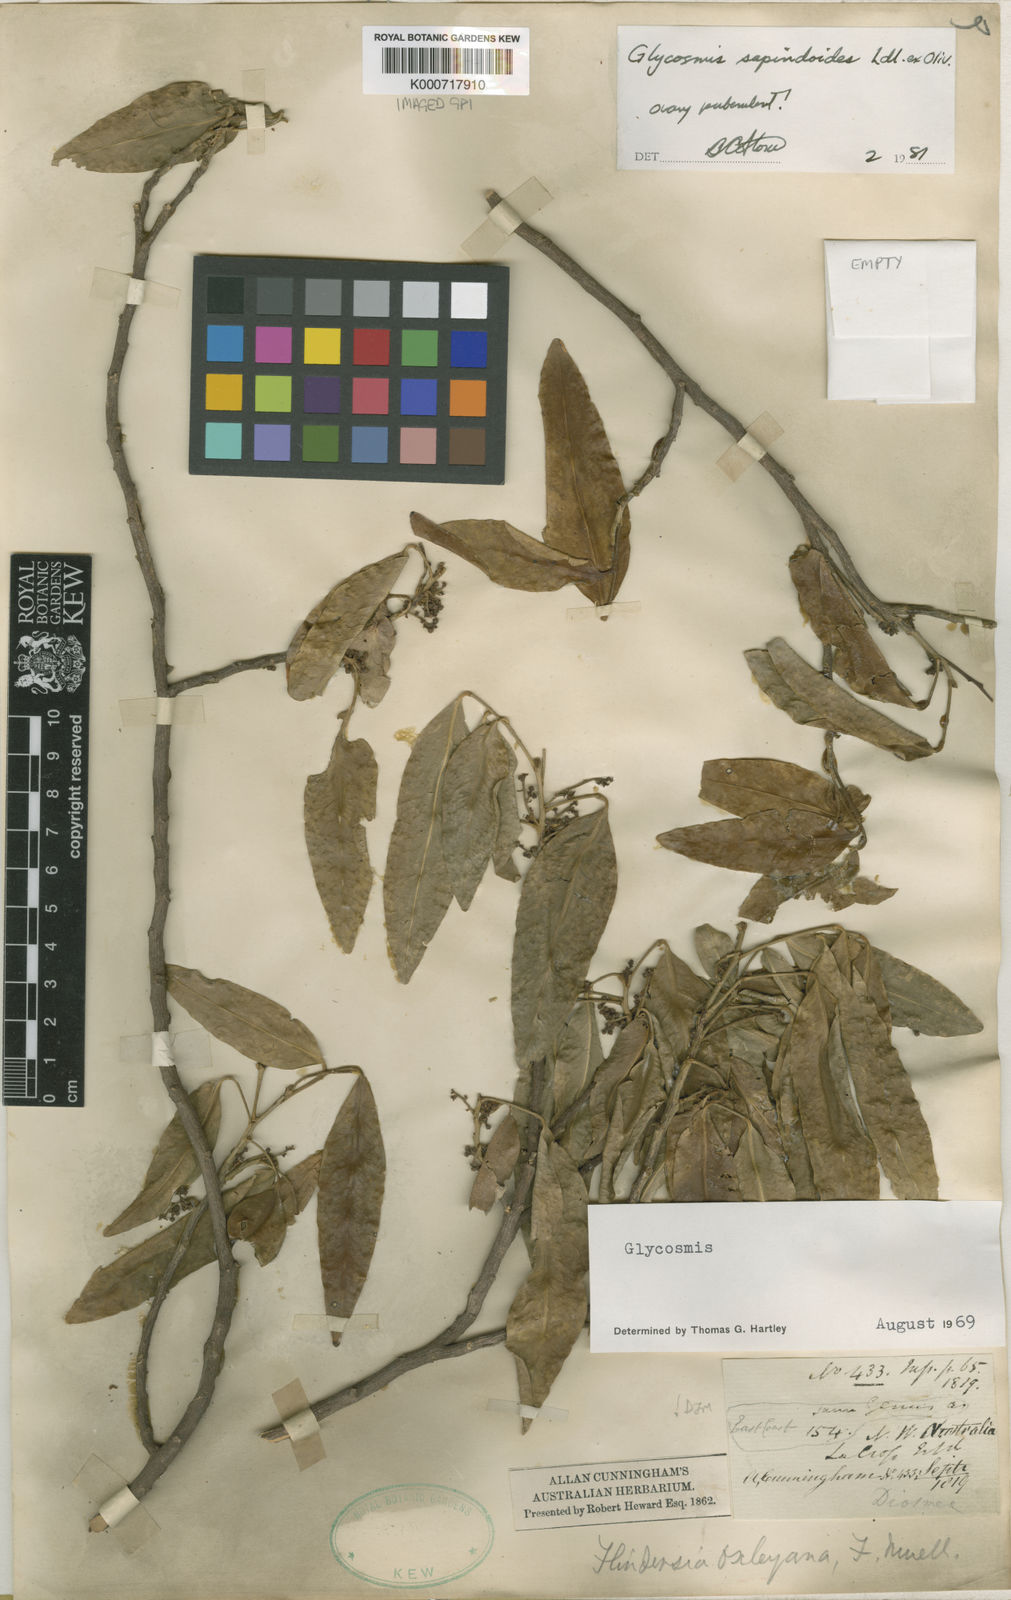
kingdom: Plantae
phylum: Tracheophyta
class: Magnoliopsida
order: Sapindales
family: Rutaceae
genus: Glycosmis
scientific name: Glycosmis pentaphylla
